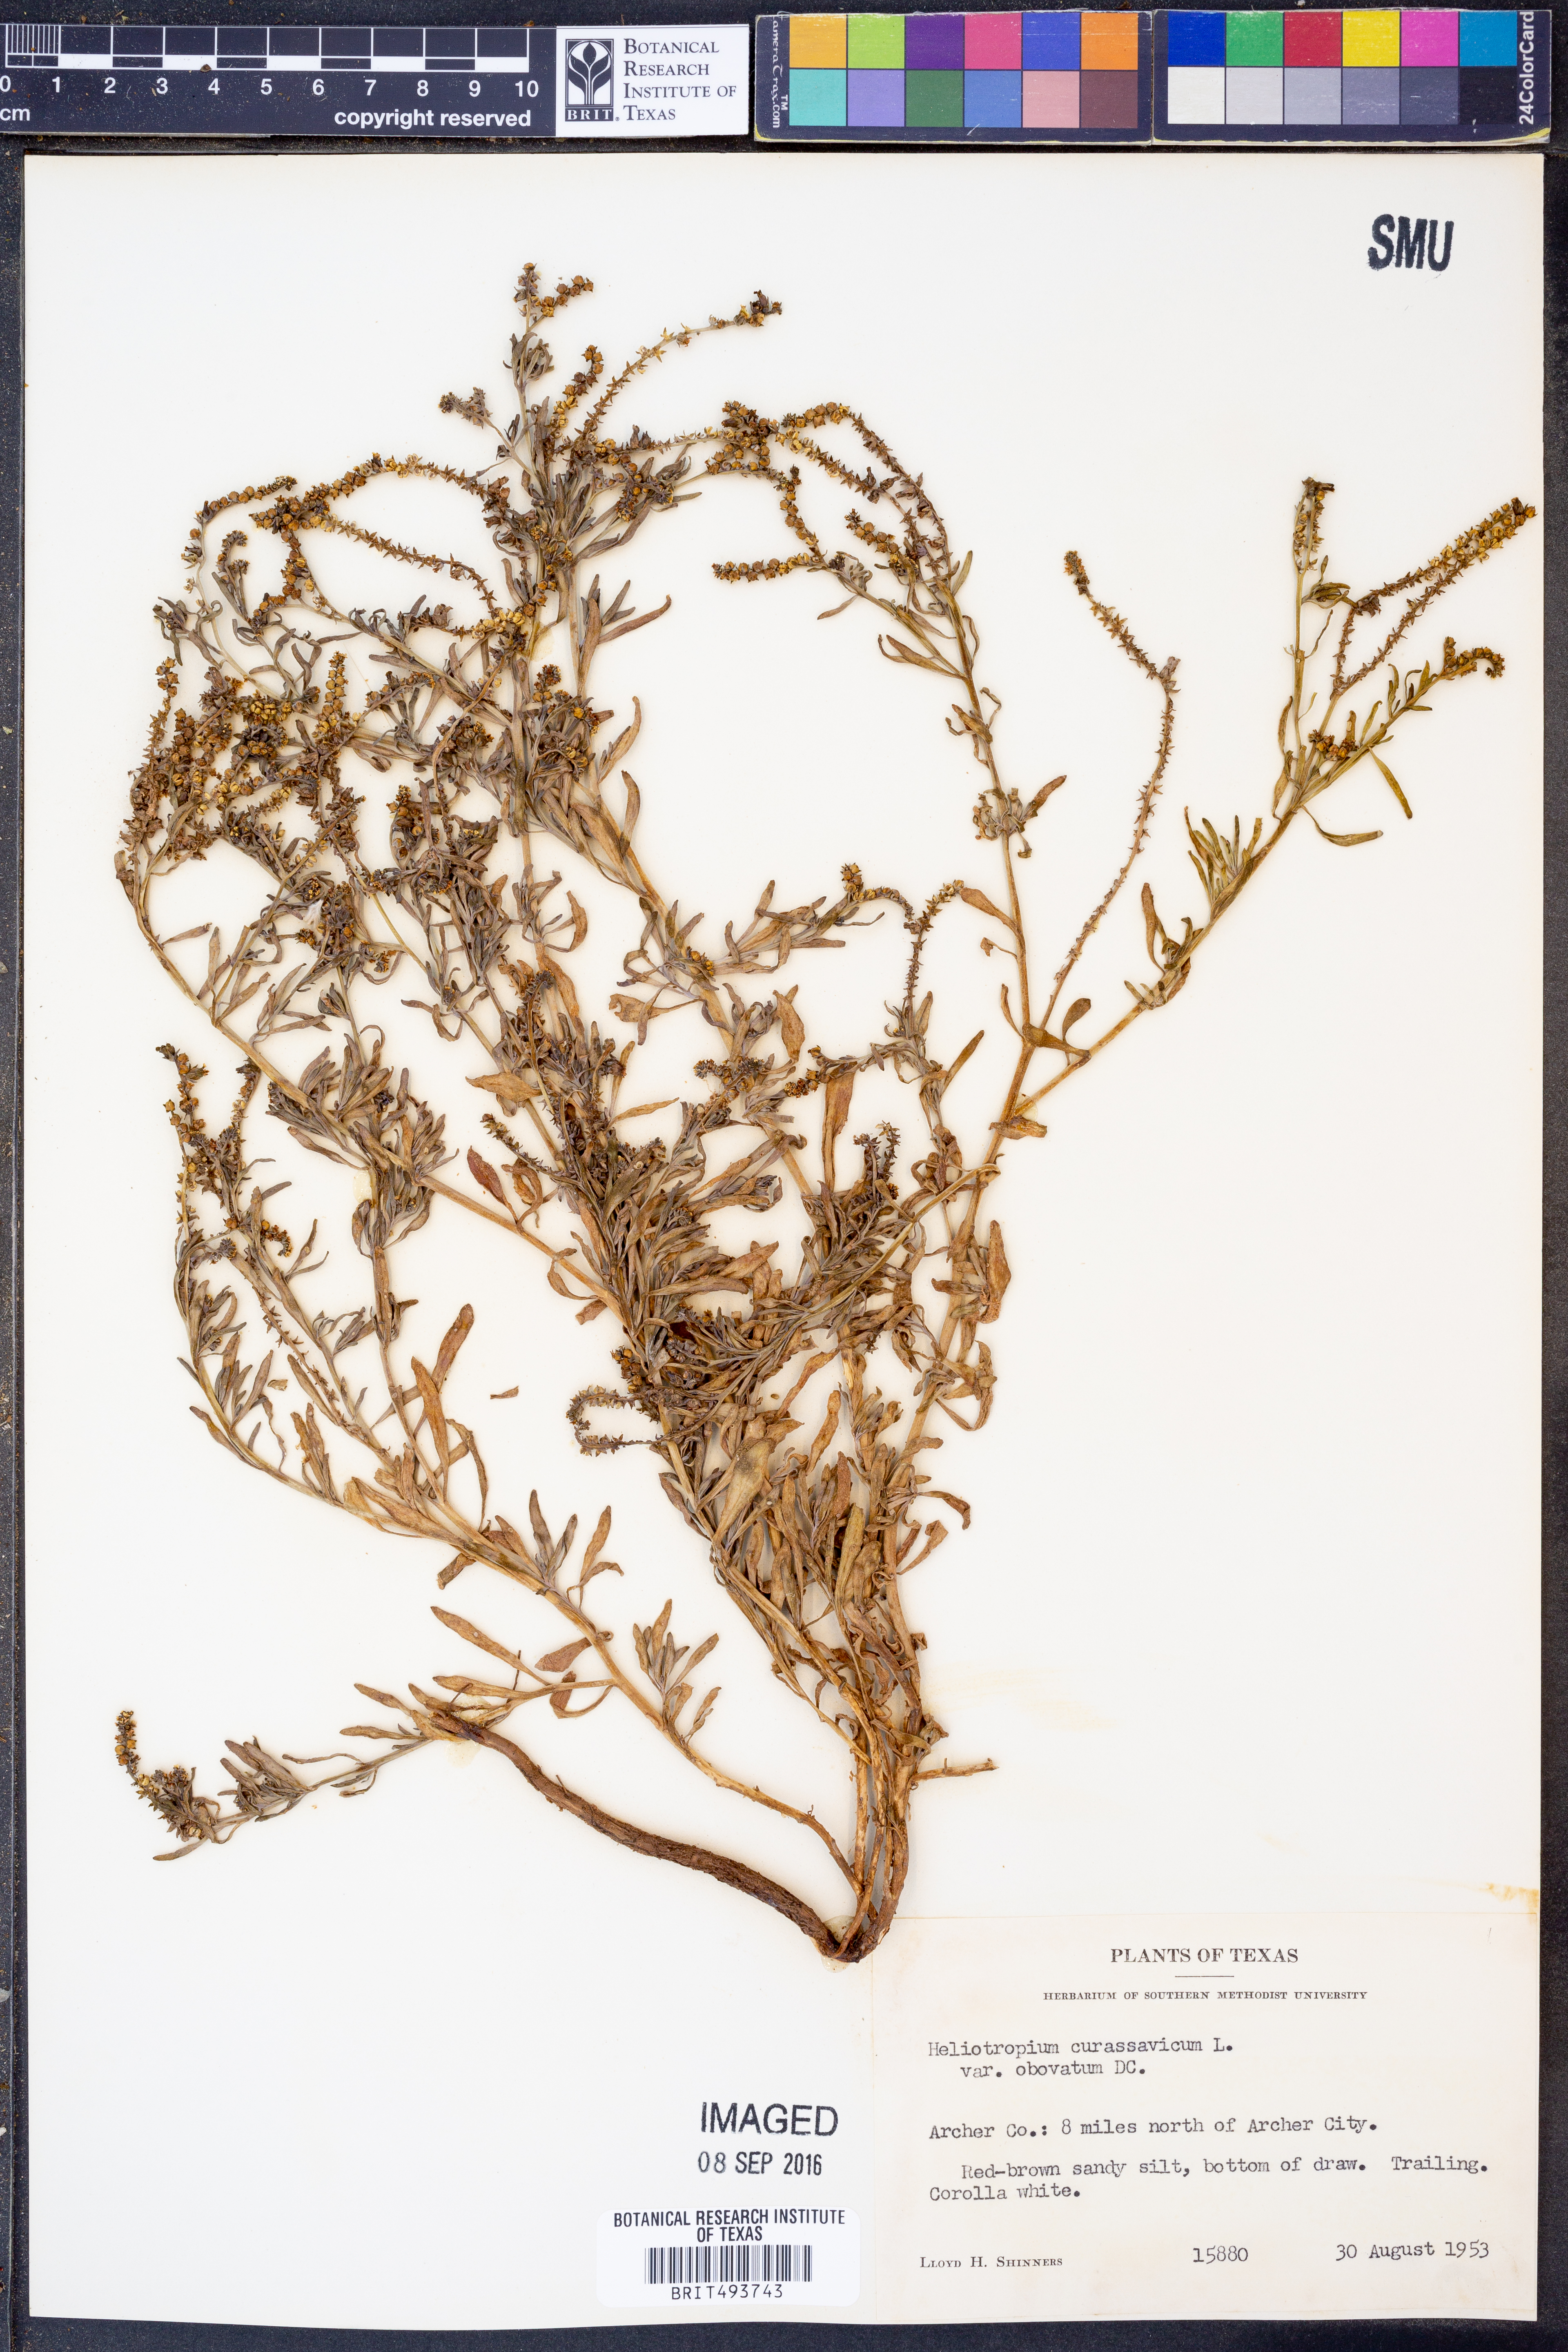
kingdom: Plantae
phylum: Tracheophyta
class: Magnoliopsida
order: Boraginales
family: Heliotropiaceae
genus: Heliotropium
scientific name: Heliotropium curassavicum
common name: Seaside heliotrope
